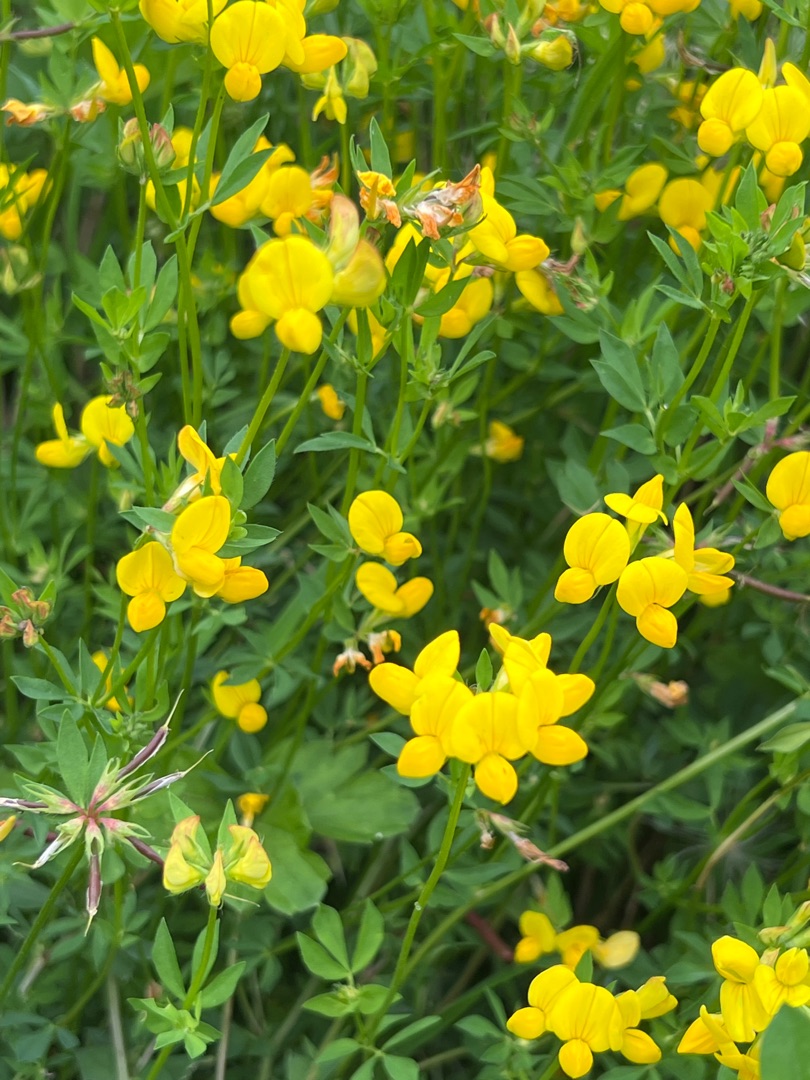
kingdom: Plantae
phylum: Tracheophyta
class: Magnoliopsida
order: Fabales
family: Fabaceae
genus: Lotus
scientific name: Lotus corniculatus
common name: Almindelig kællingetand
